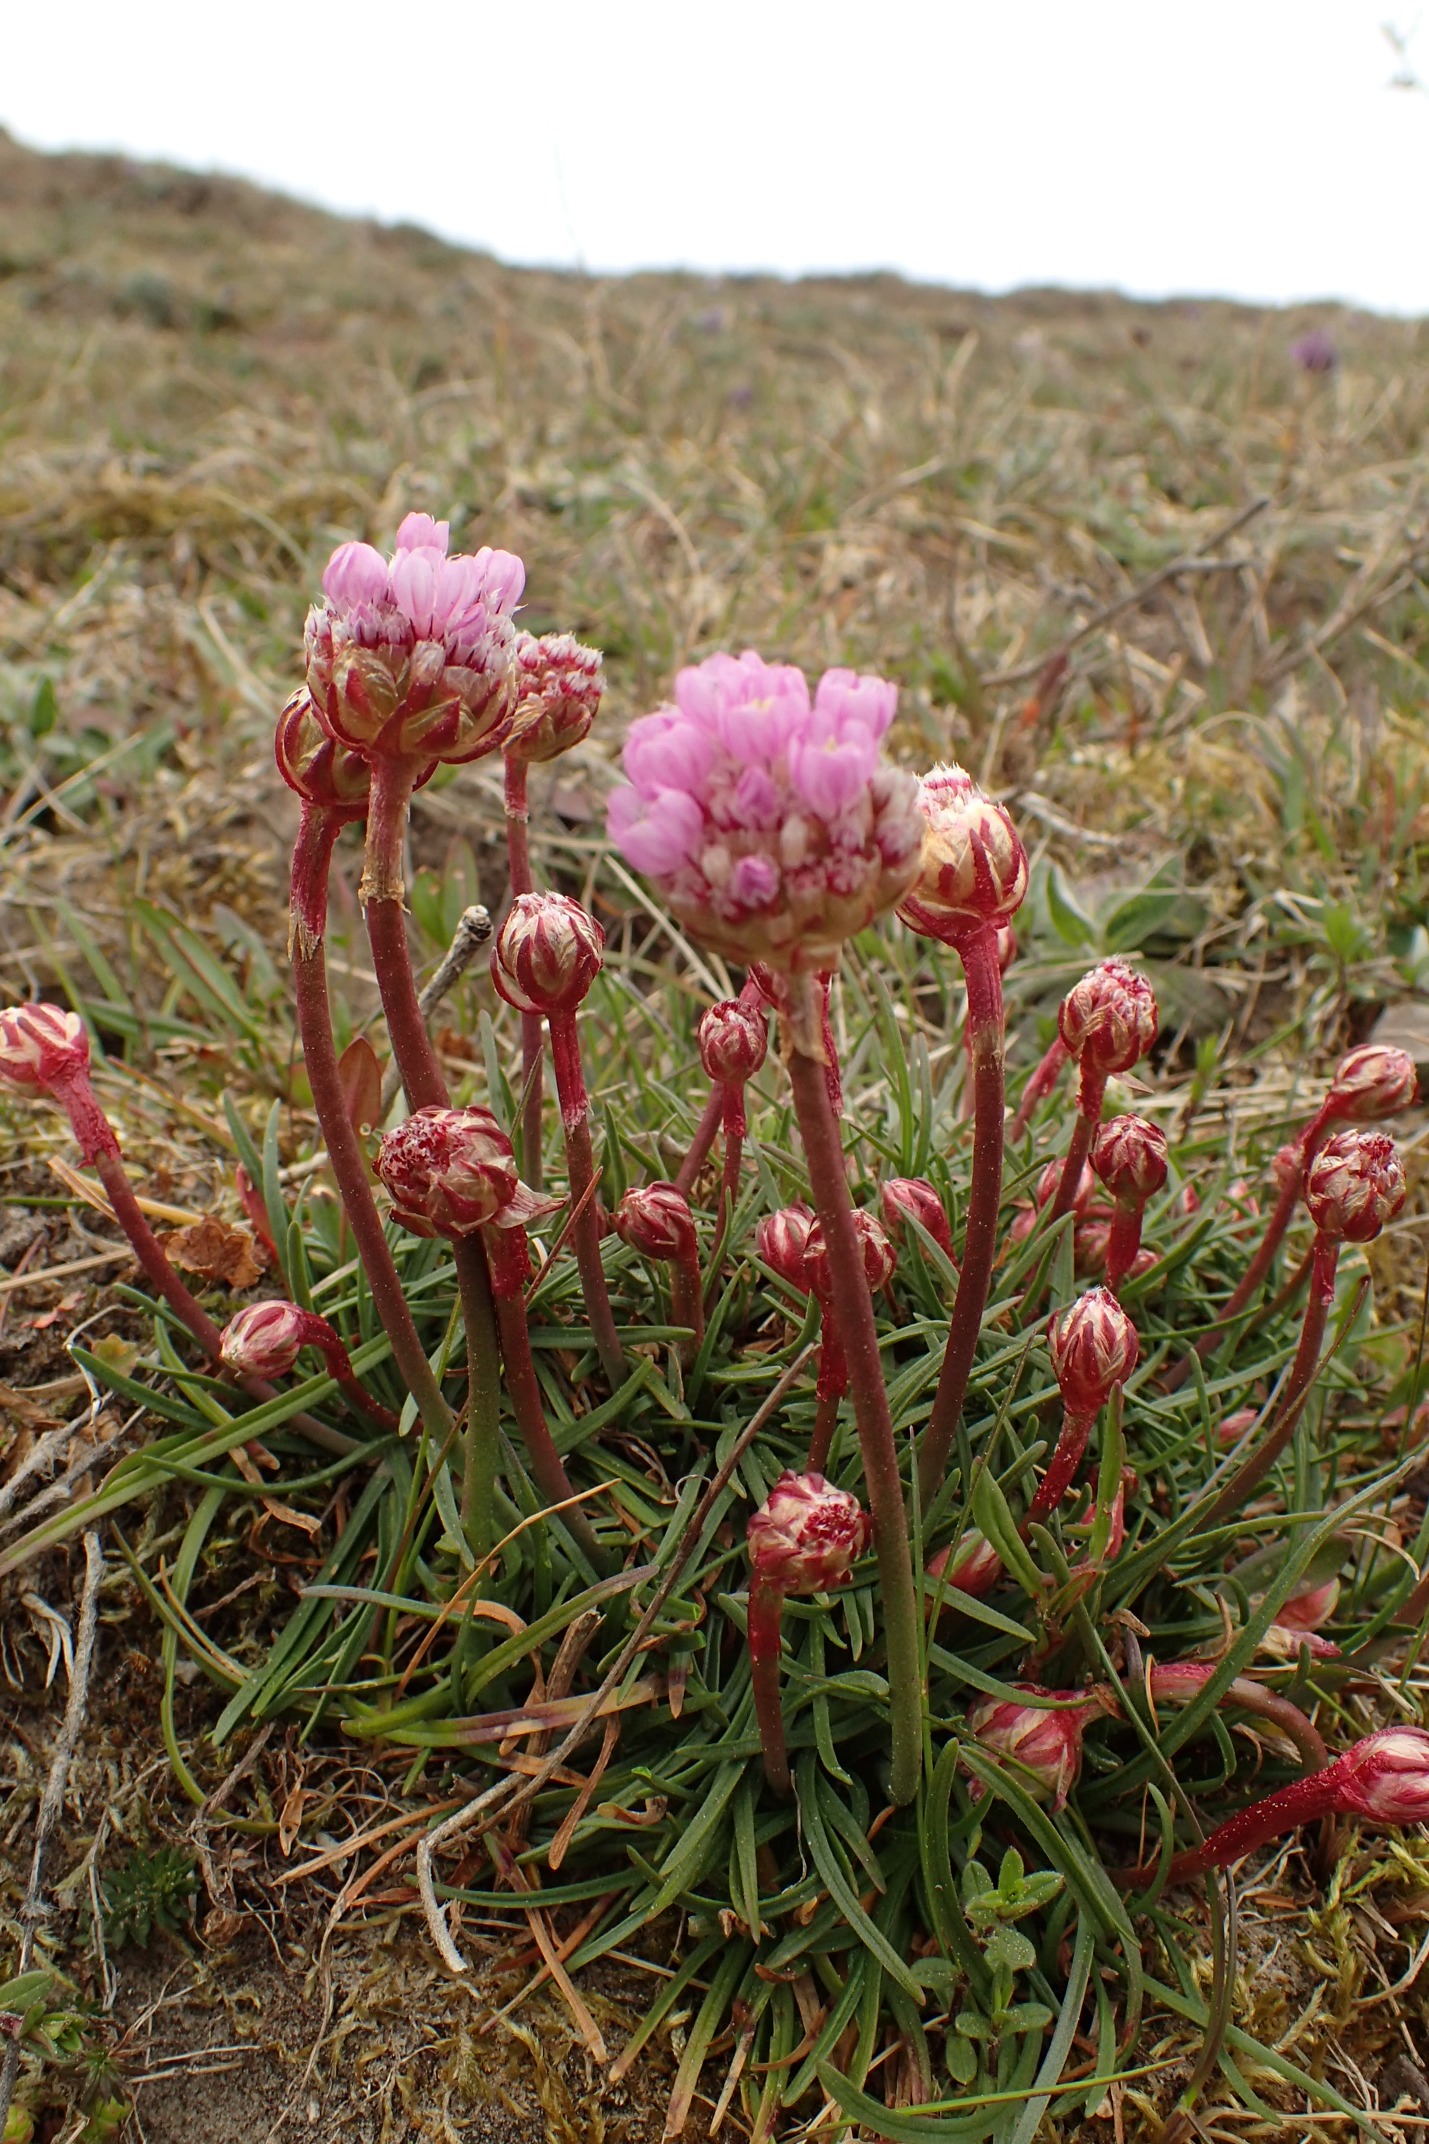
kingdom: Plantae
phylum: Tracheophyta
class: Magnoliopsida
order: Caryophyllales
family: Plumbaginaceae
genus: Armeria
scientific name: Armeria maritima
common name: Vej-engelskgræs
